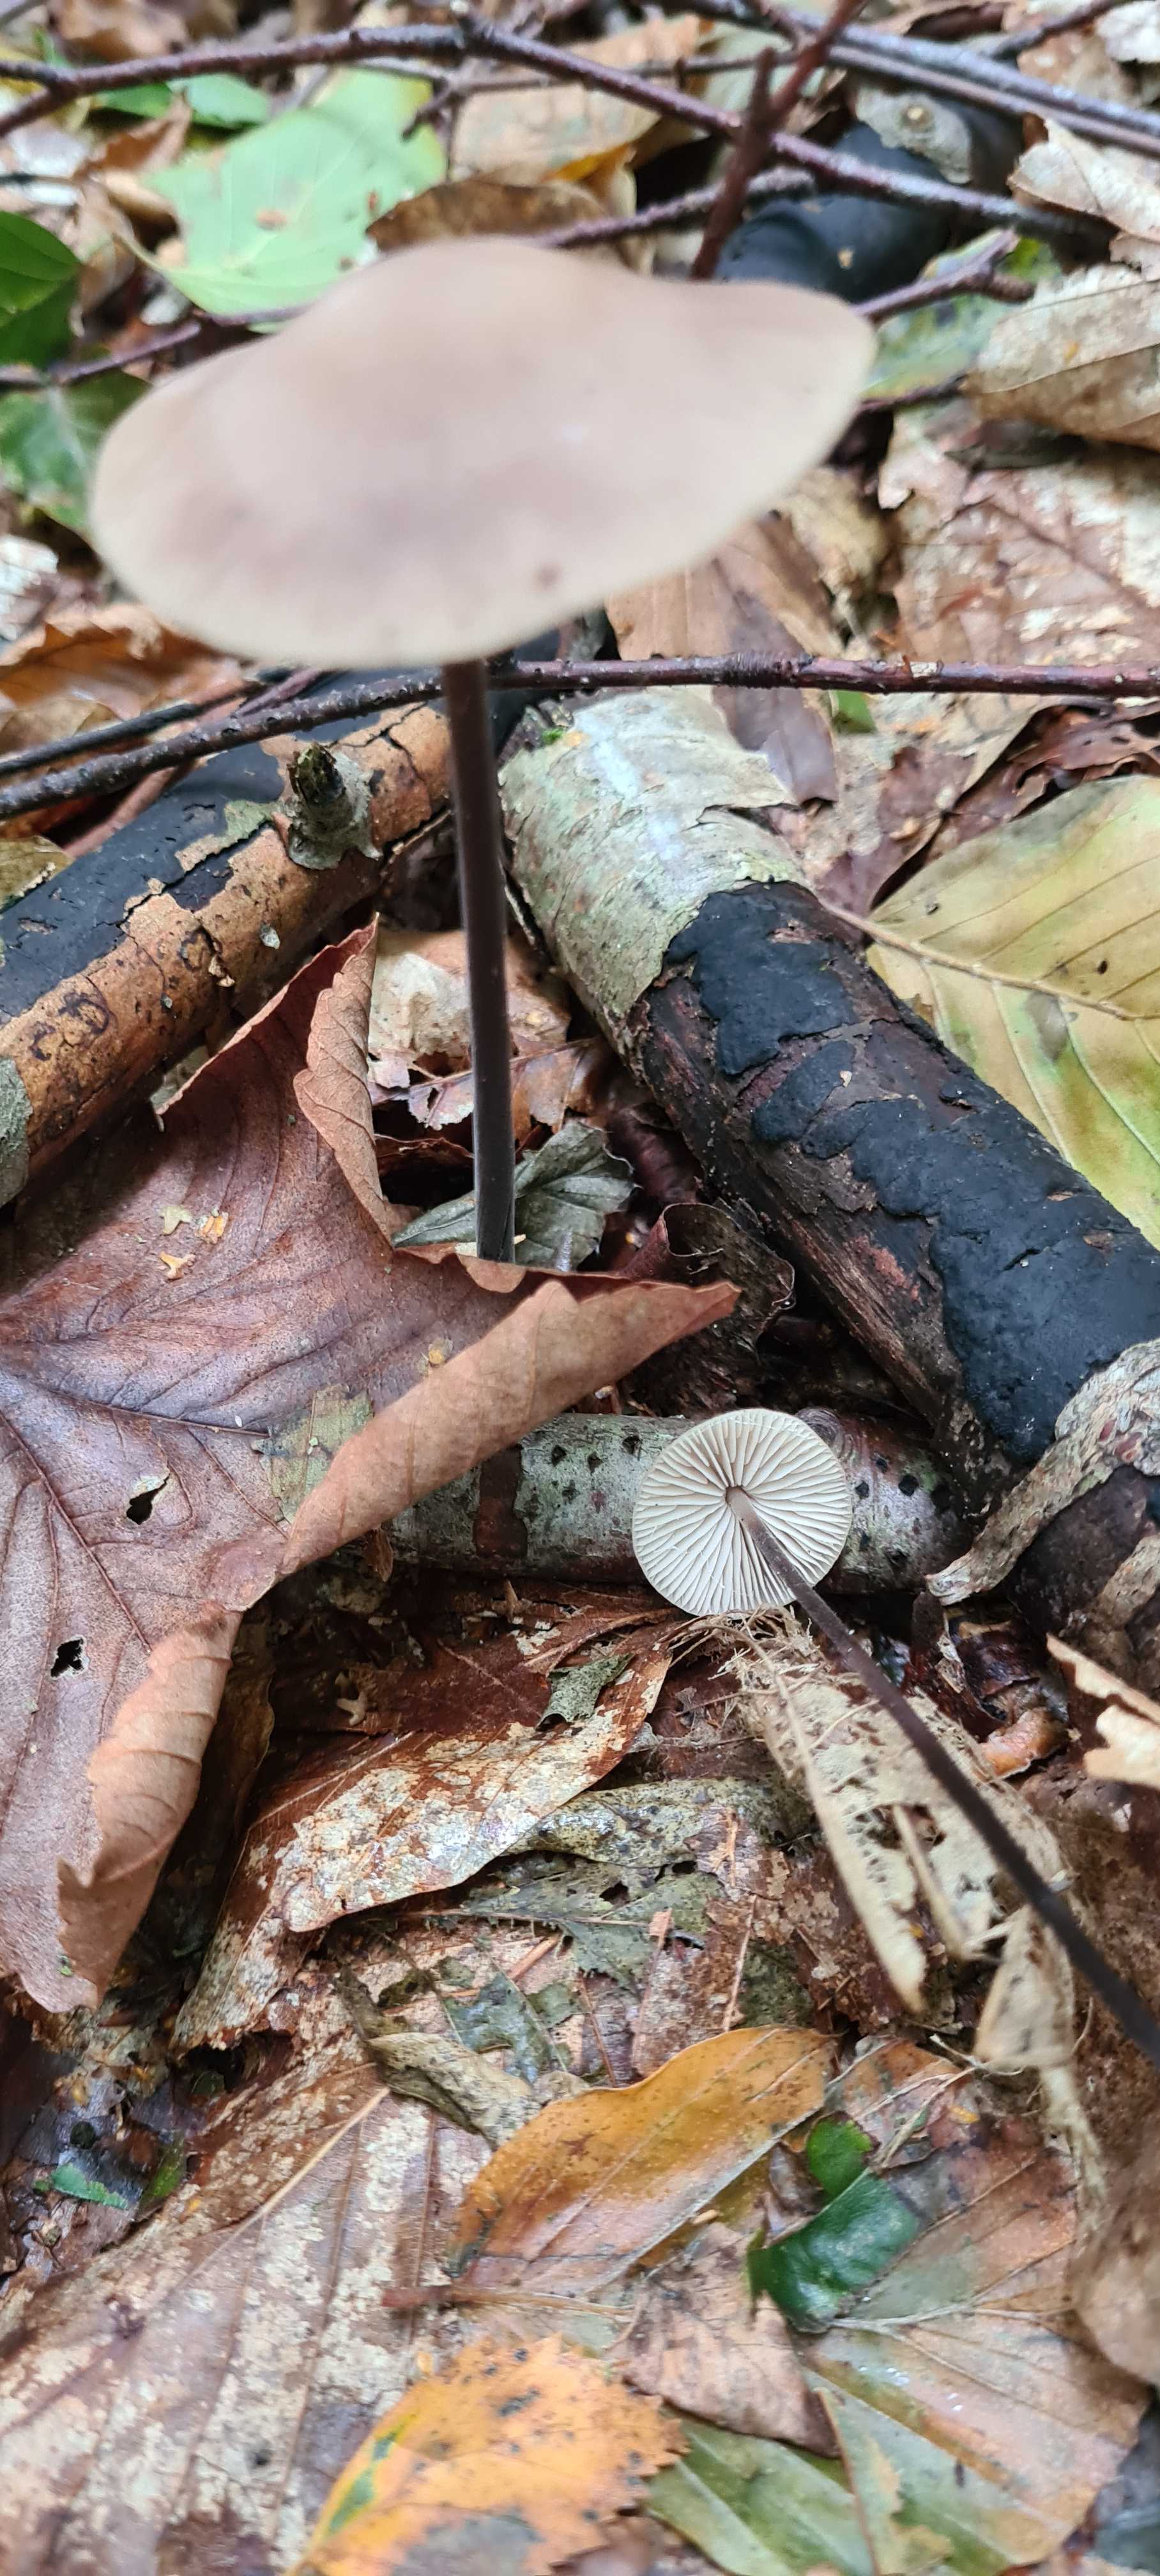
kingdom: Fungi
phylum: Basidiomycota
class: Agaricomycetes
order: Agaricales
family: Omphalotaceae
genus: Mycetinis
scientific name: Mycetinis alliaceus
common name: stor løghat
